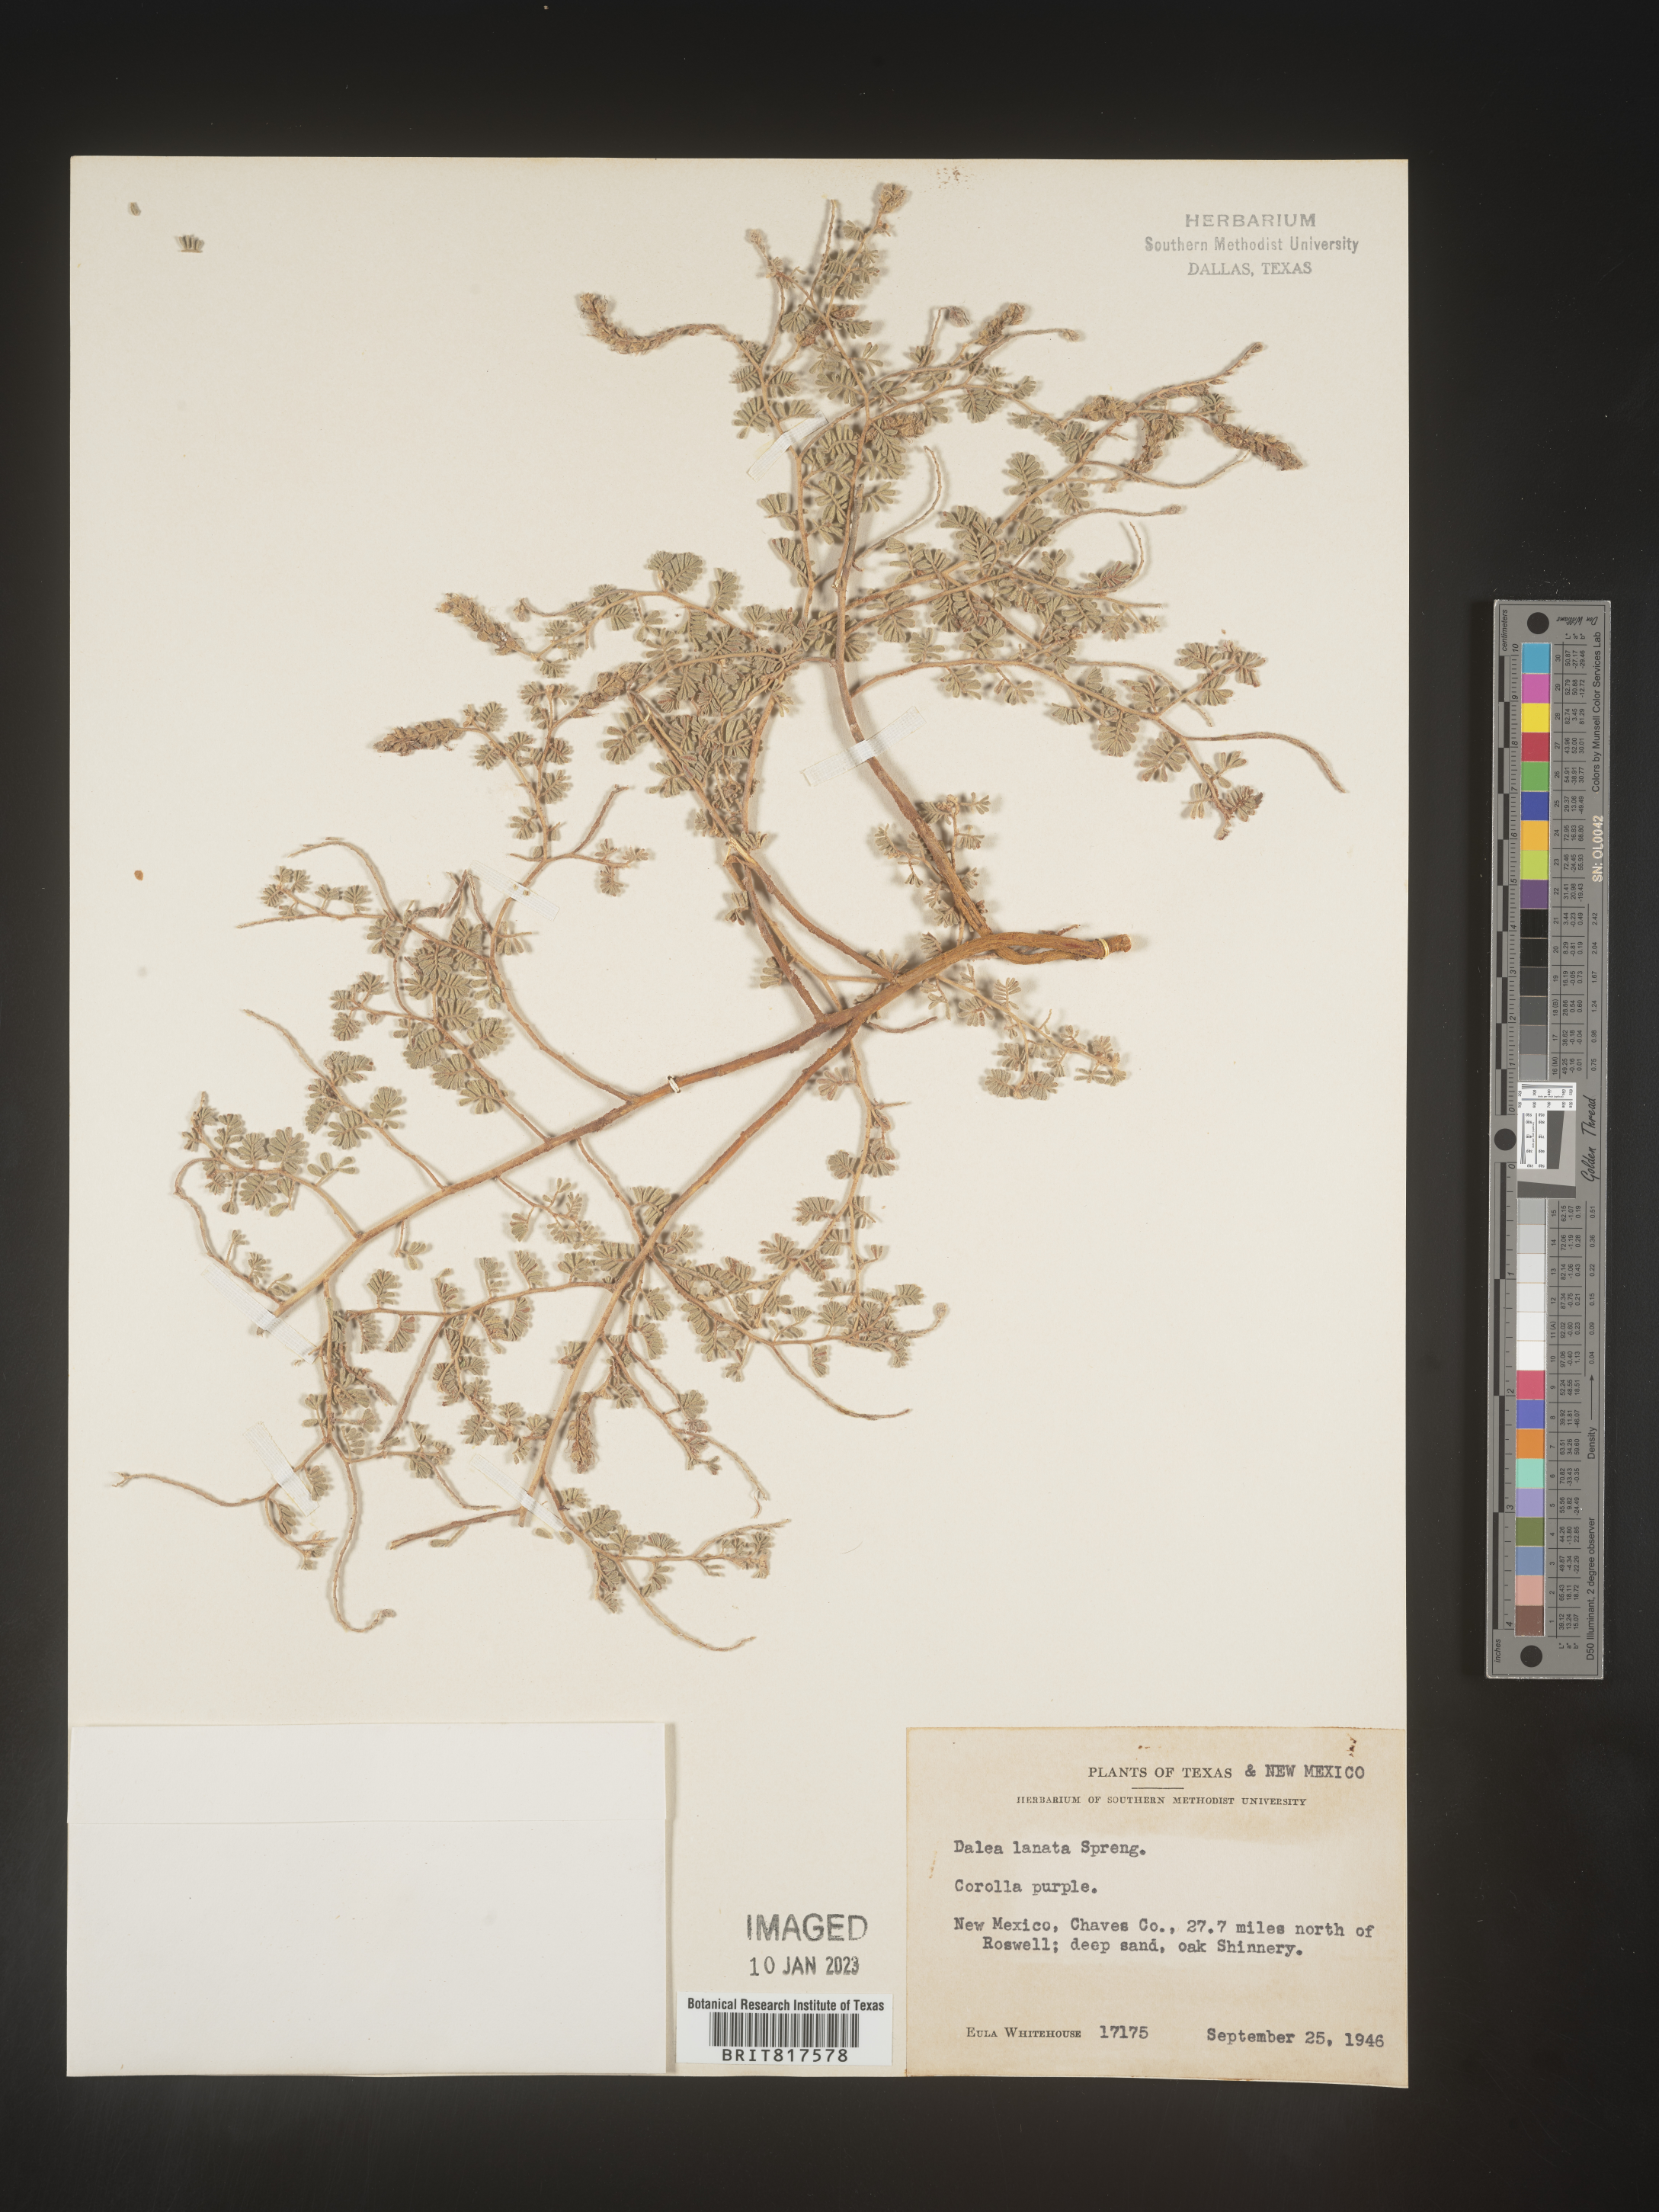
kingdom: Plantae
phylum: Tracheophyta
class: Magnoliopsida
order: Fabales
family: Fabaceae
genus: Dalea
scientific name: Dalea lanata
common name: Woolly dalea
